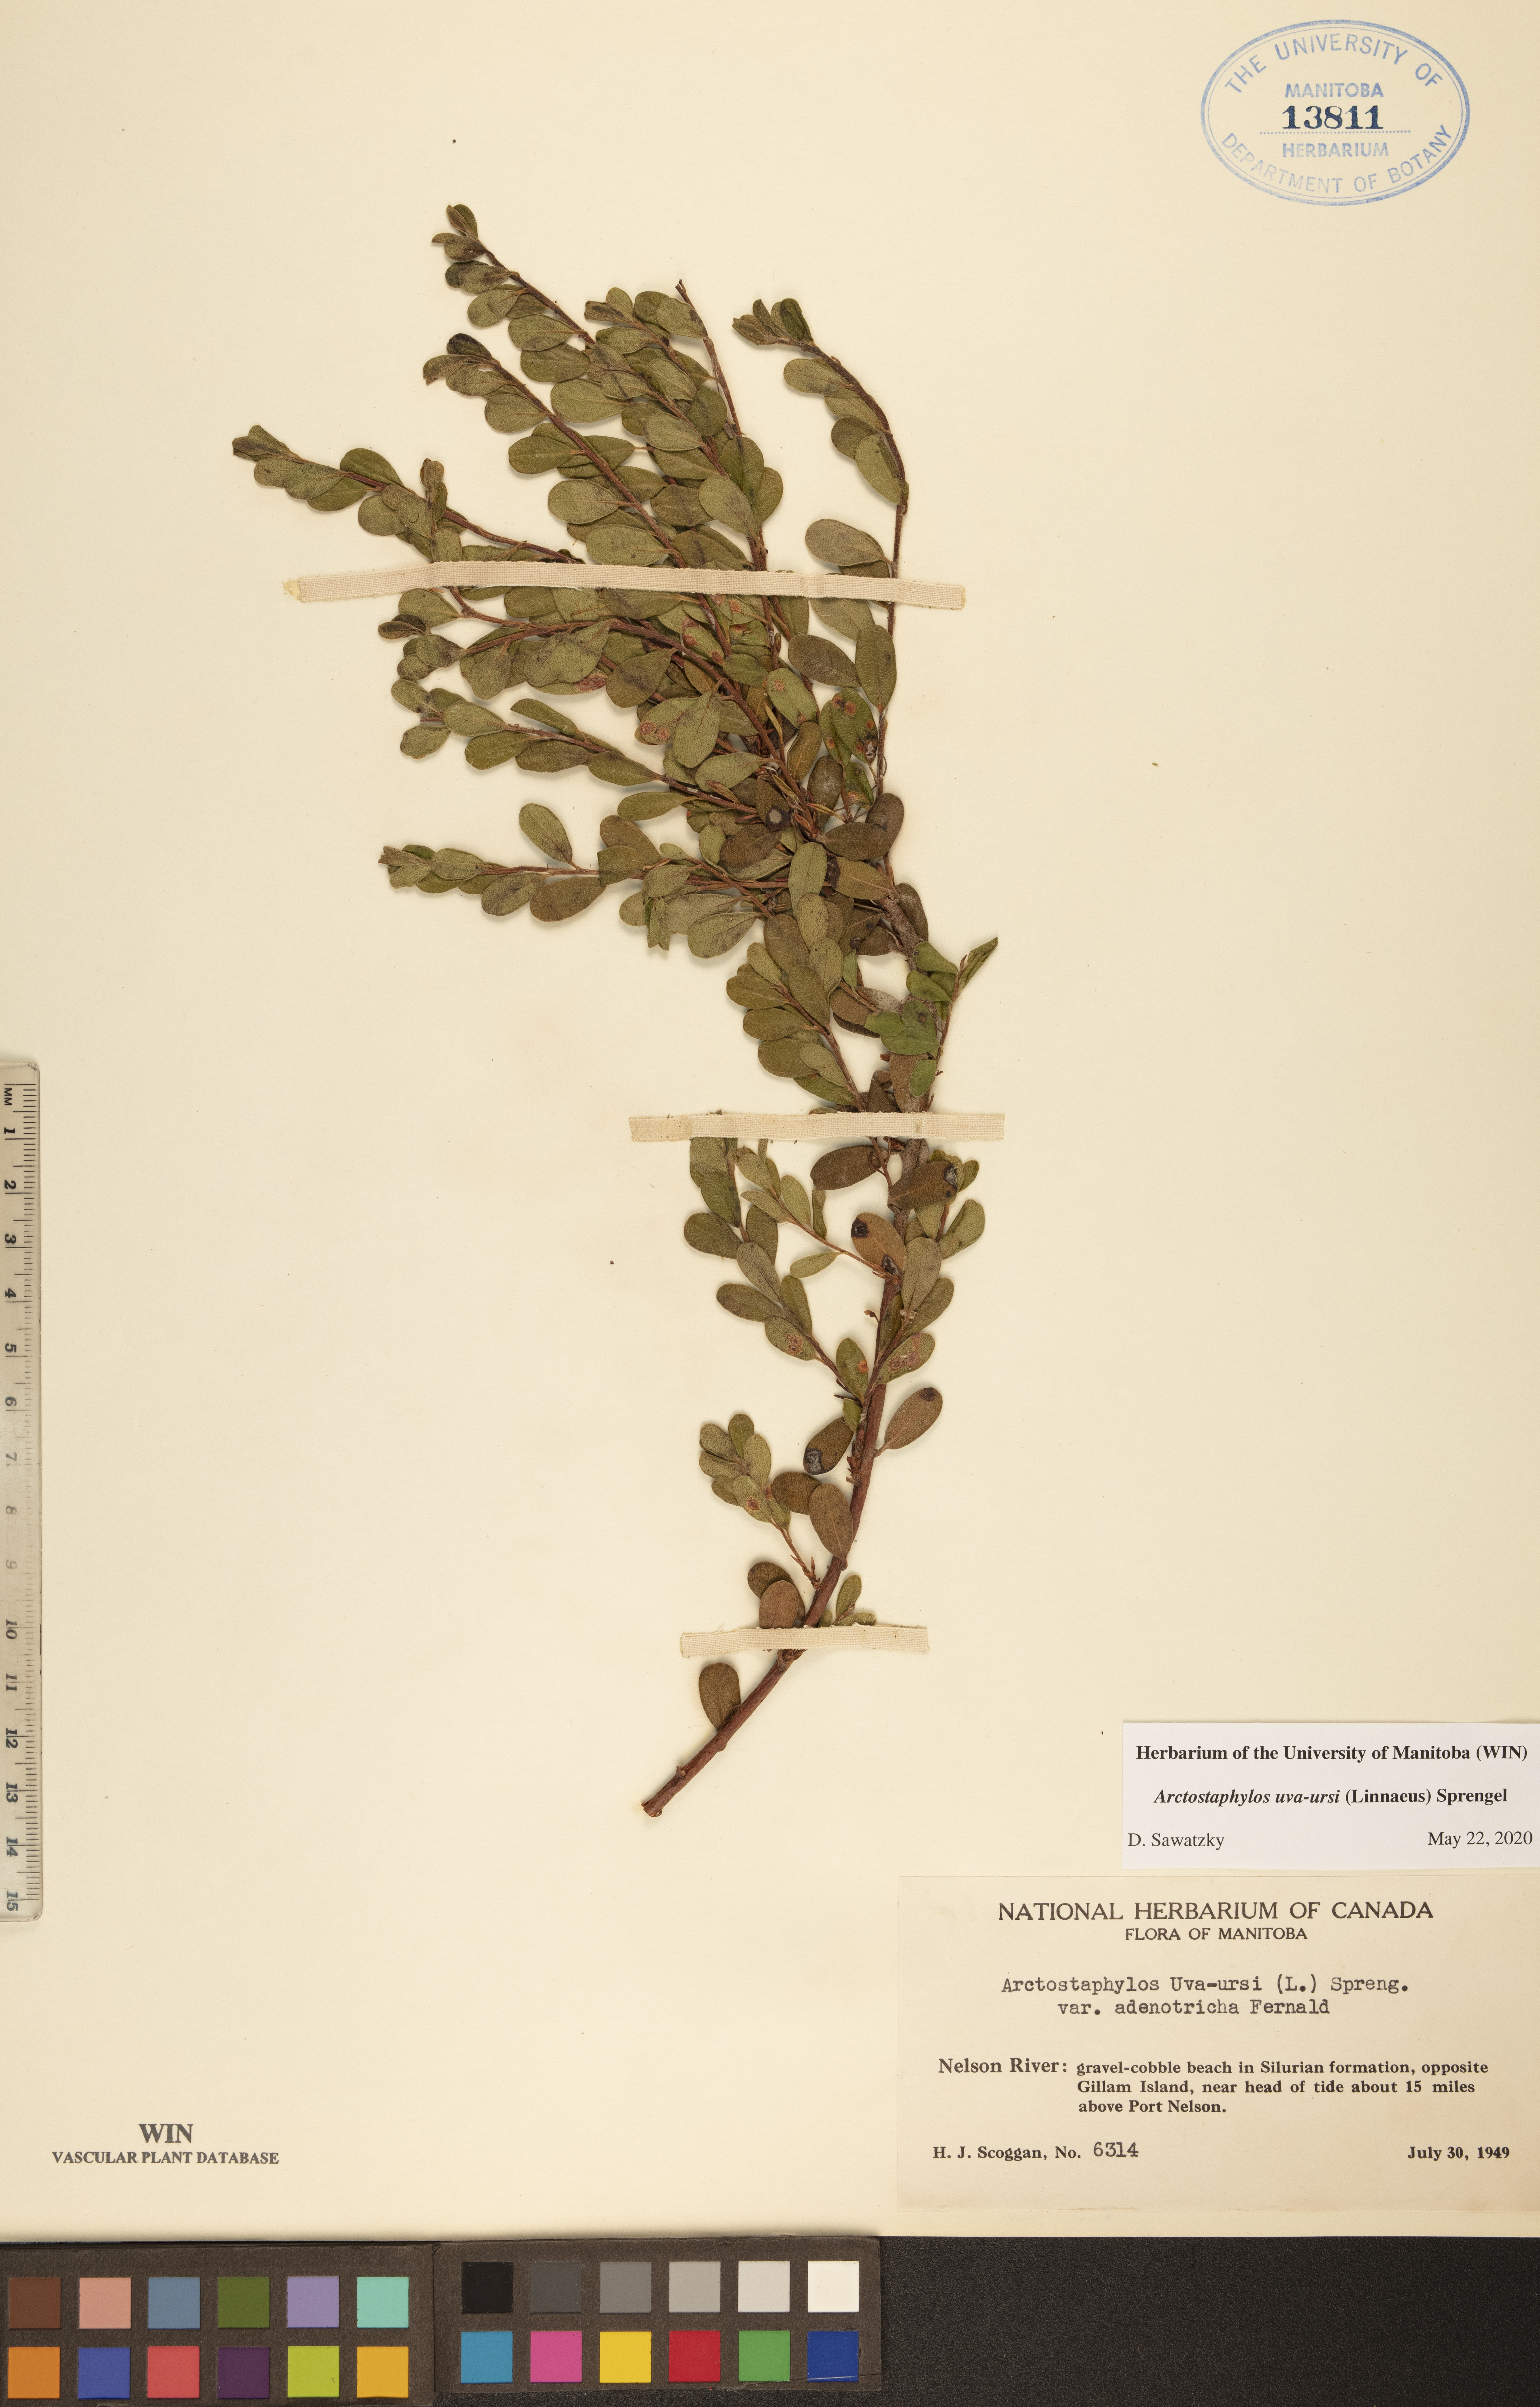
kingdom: Plantae
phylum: Tracheophyta
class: Magnoliopsida
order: Ericales
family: Ericaceae
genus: Arctostaphylos
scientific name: Arctostaphylos uva-ursi
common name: Bearberry
